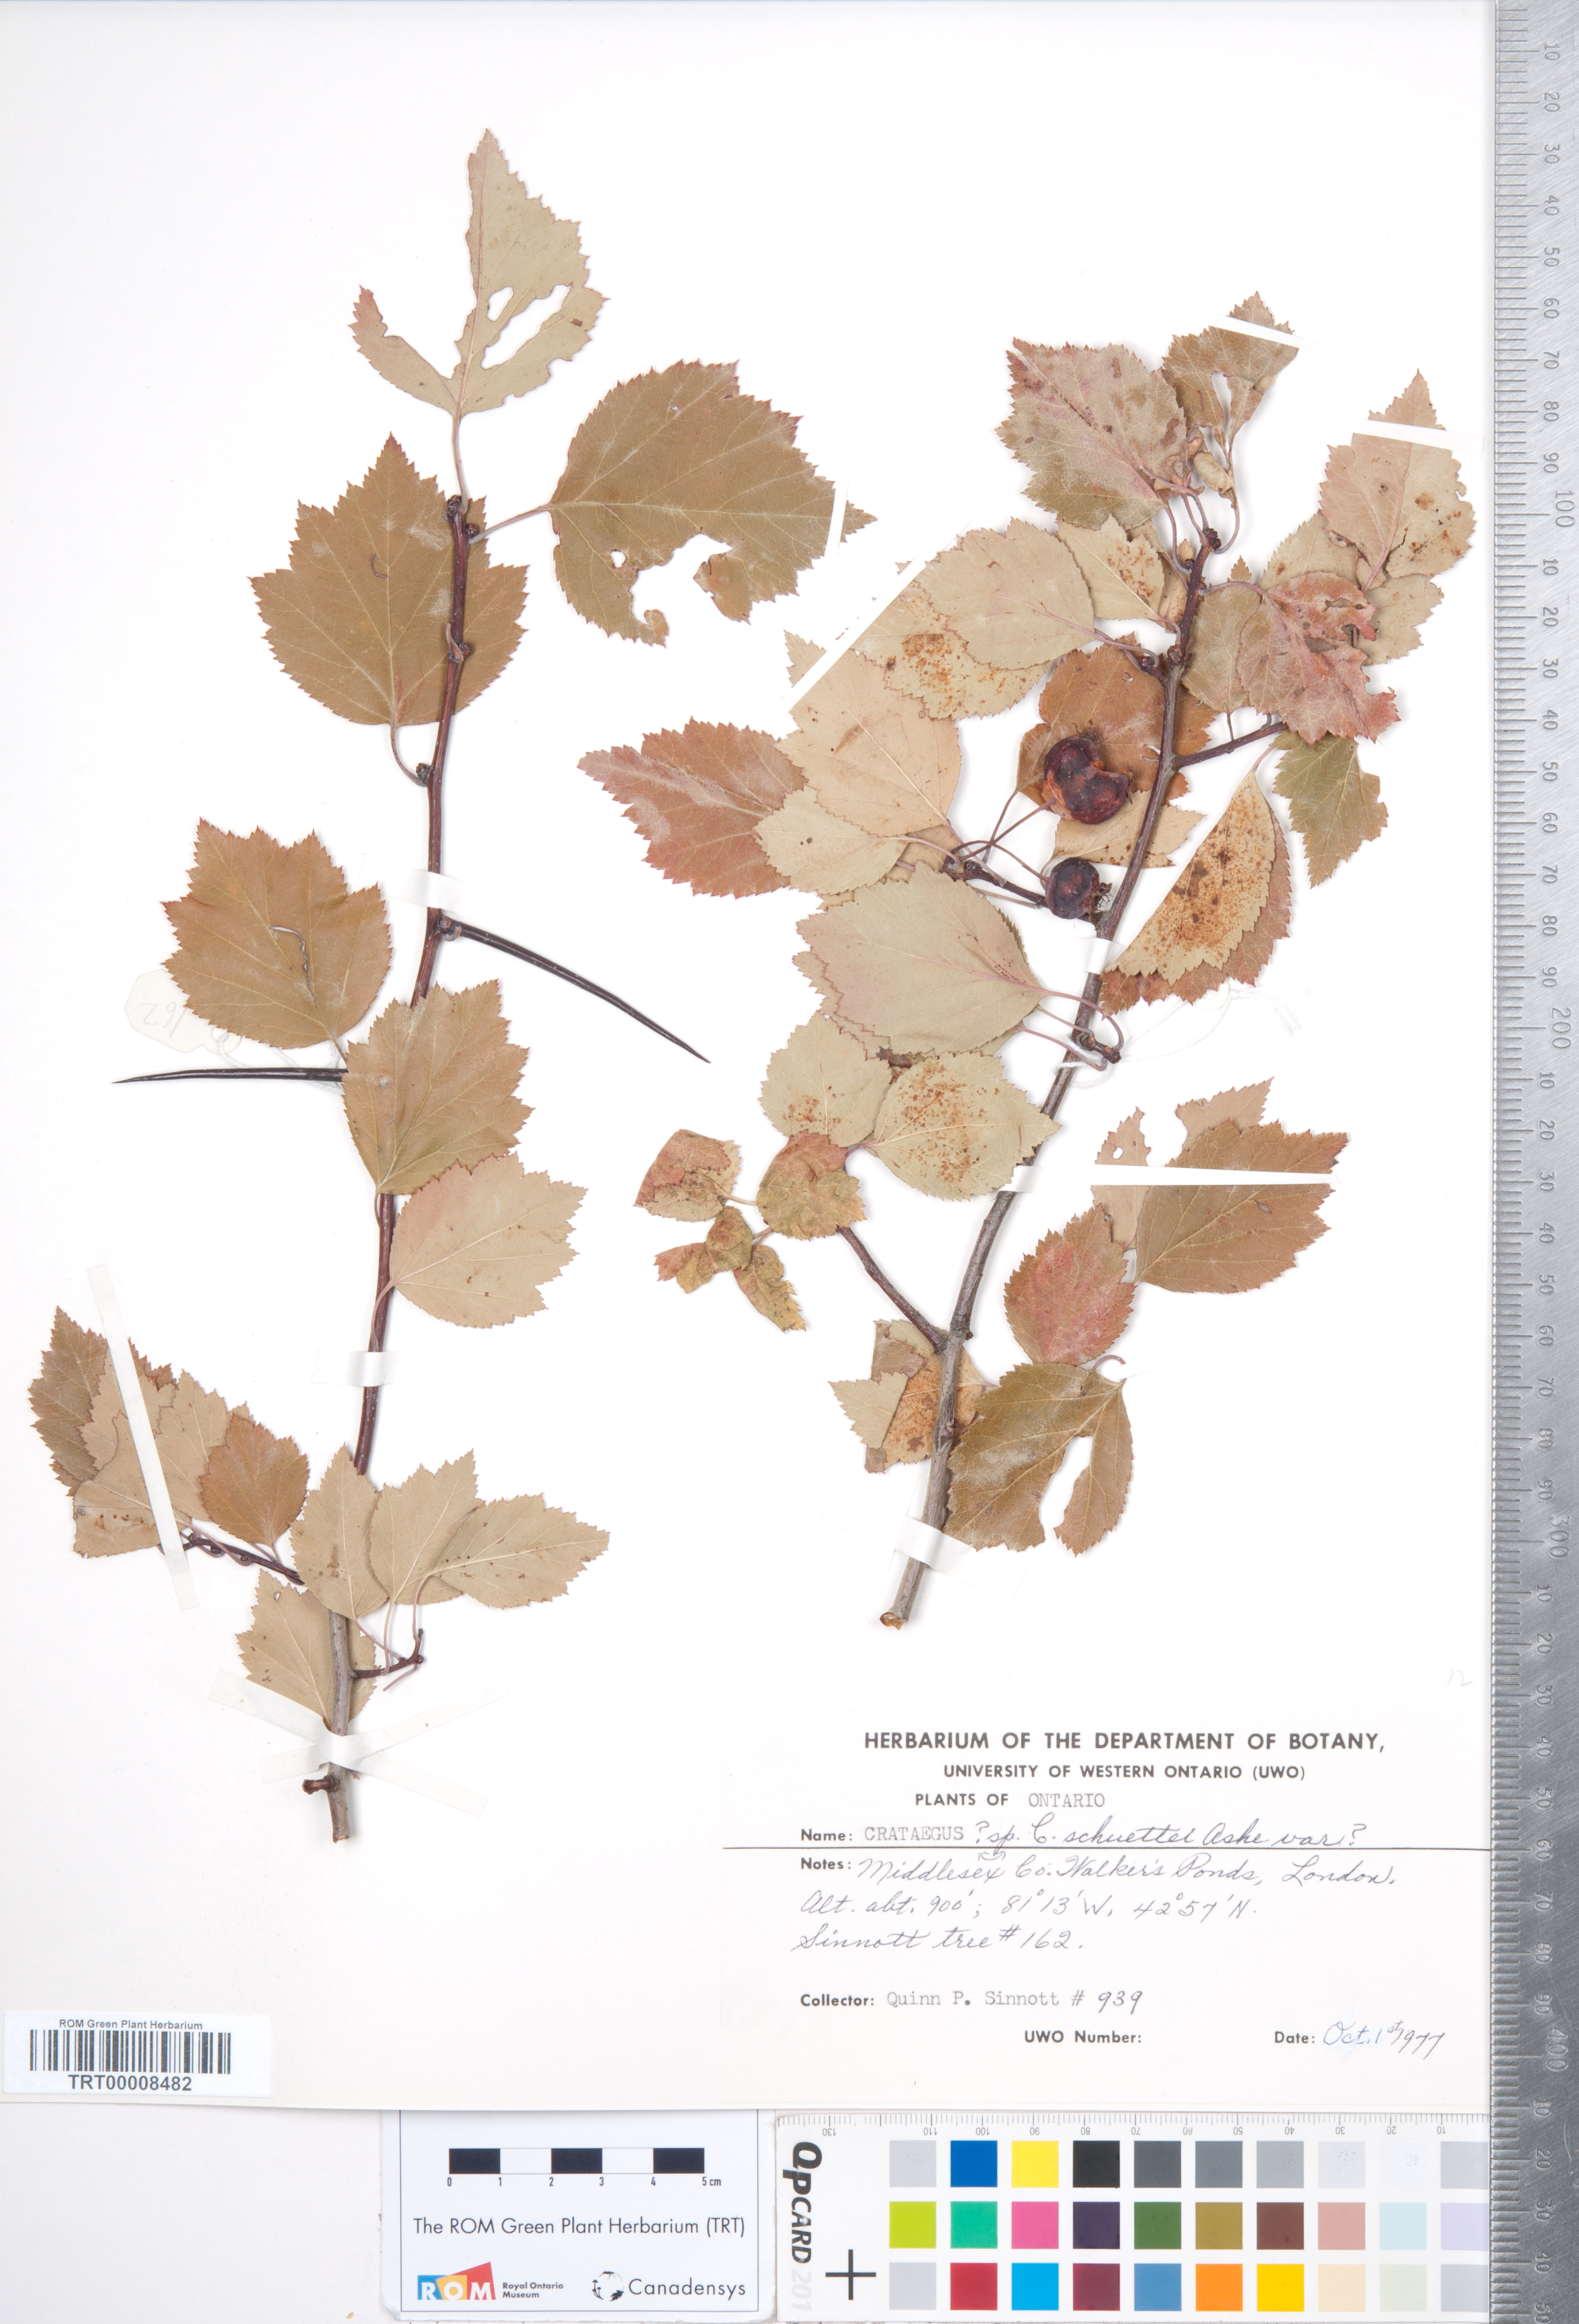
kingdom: Plantae
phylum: Tracheophyta
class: Magnoliopsida
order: Rosales
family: Rosaceae
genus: Crataegus
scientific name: Crataegus schuettei
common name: Schuette's hawthorn
